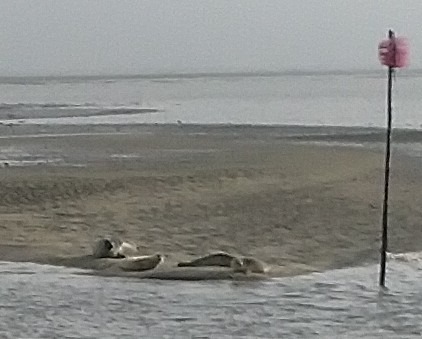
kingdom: Animalia
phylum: Chordata
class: Mammalia
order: Carnivora
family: Phocidae
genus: Phoca
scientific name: Phoca vitulina
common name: Spættet sæl
